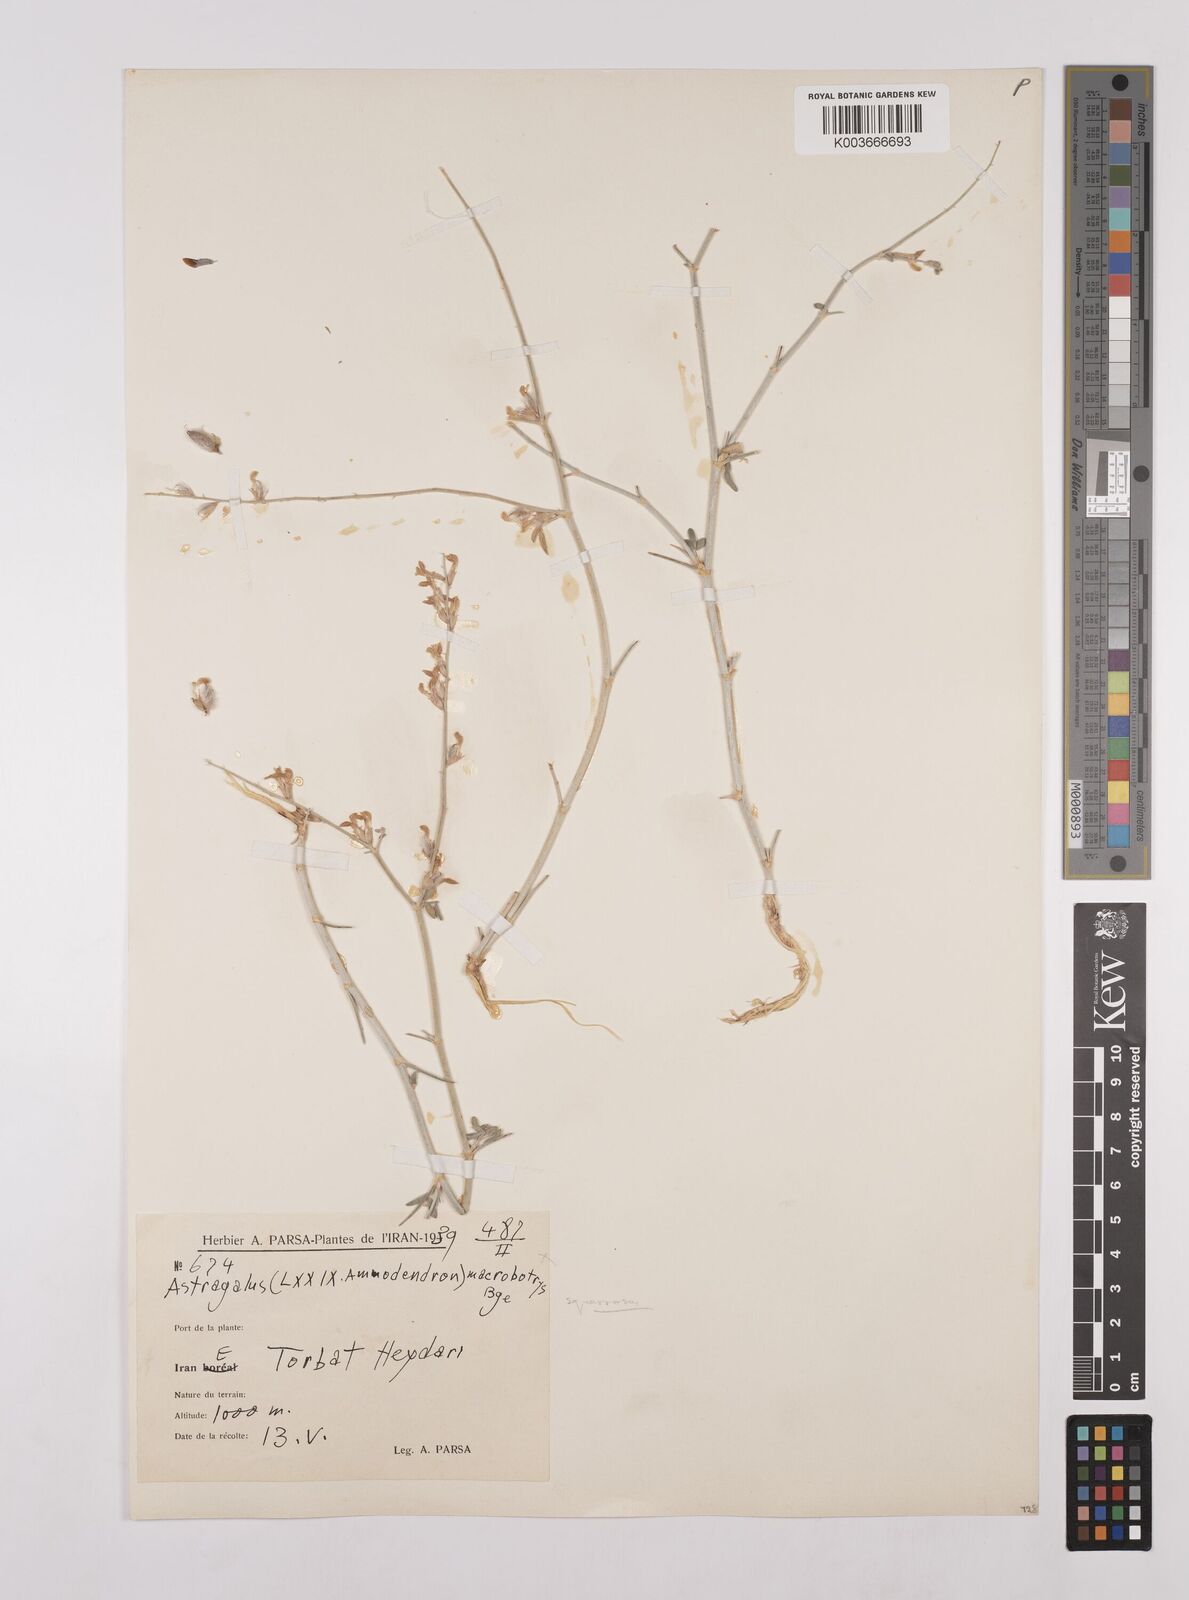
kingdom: Plantae
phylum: Tracheophyta
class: Magnoliopsida
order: Fabales
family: Fabaceae
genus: Astragalus
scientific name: Astragalus macrobotrys
